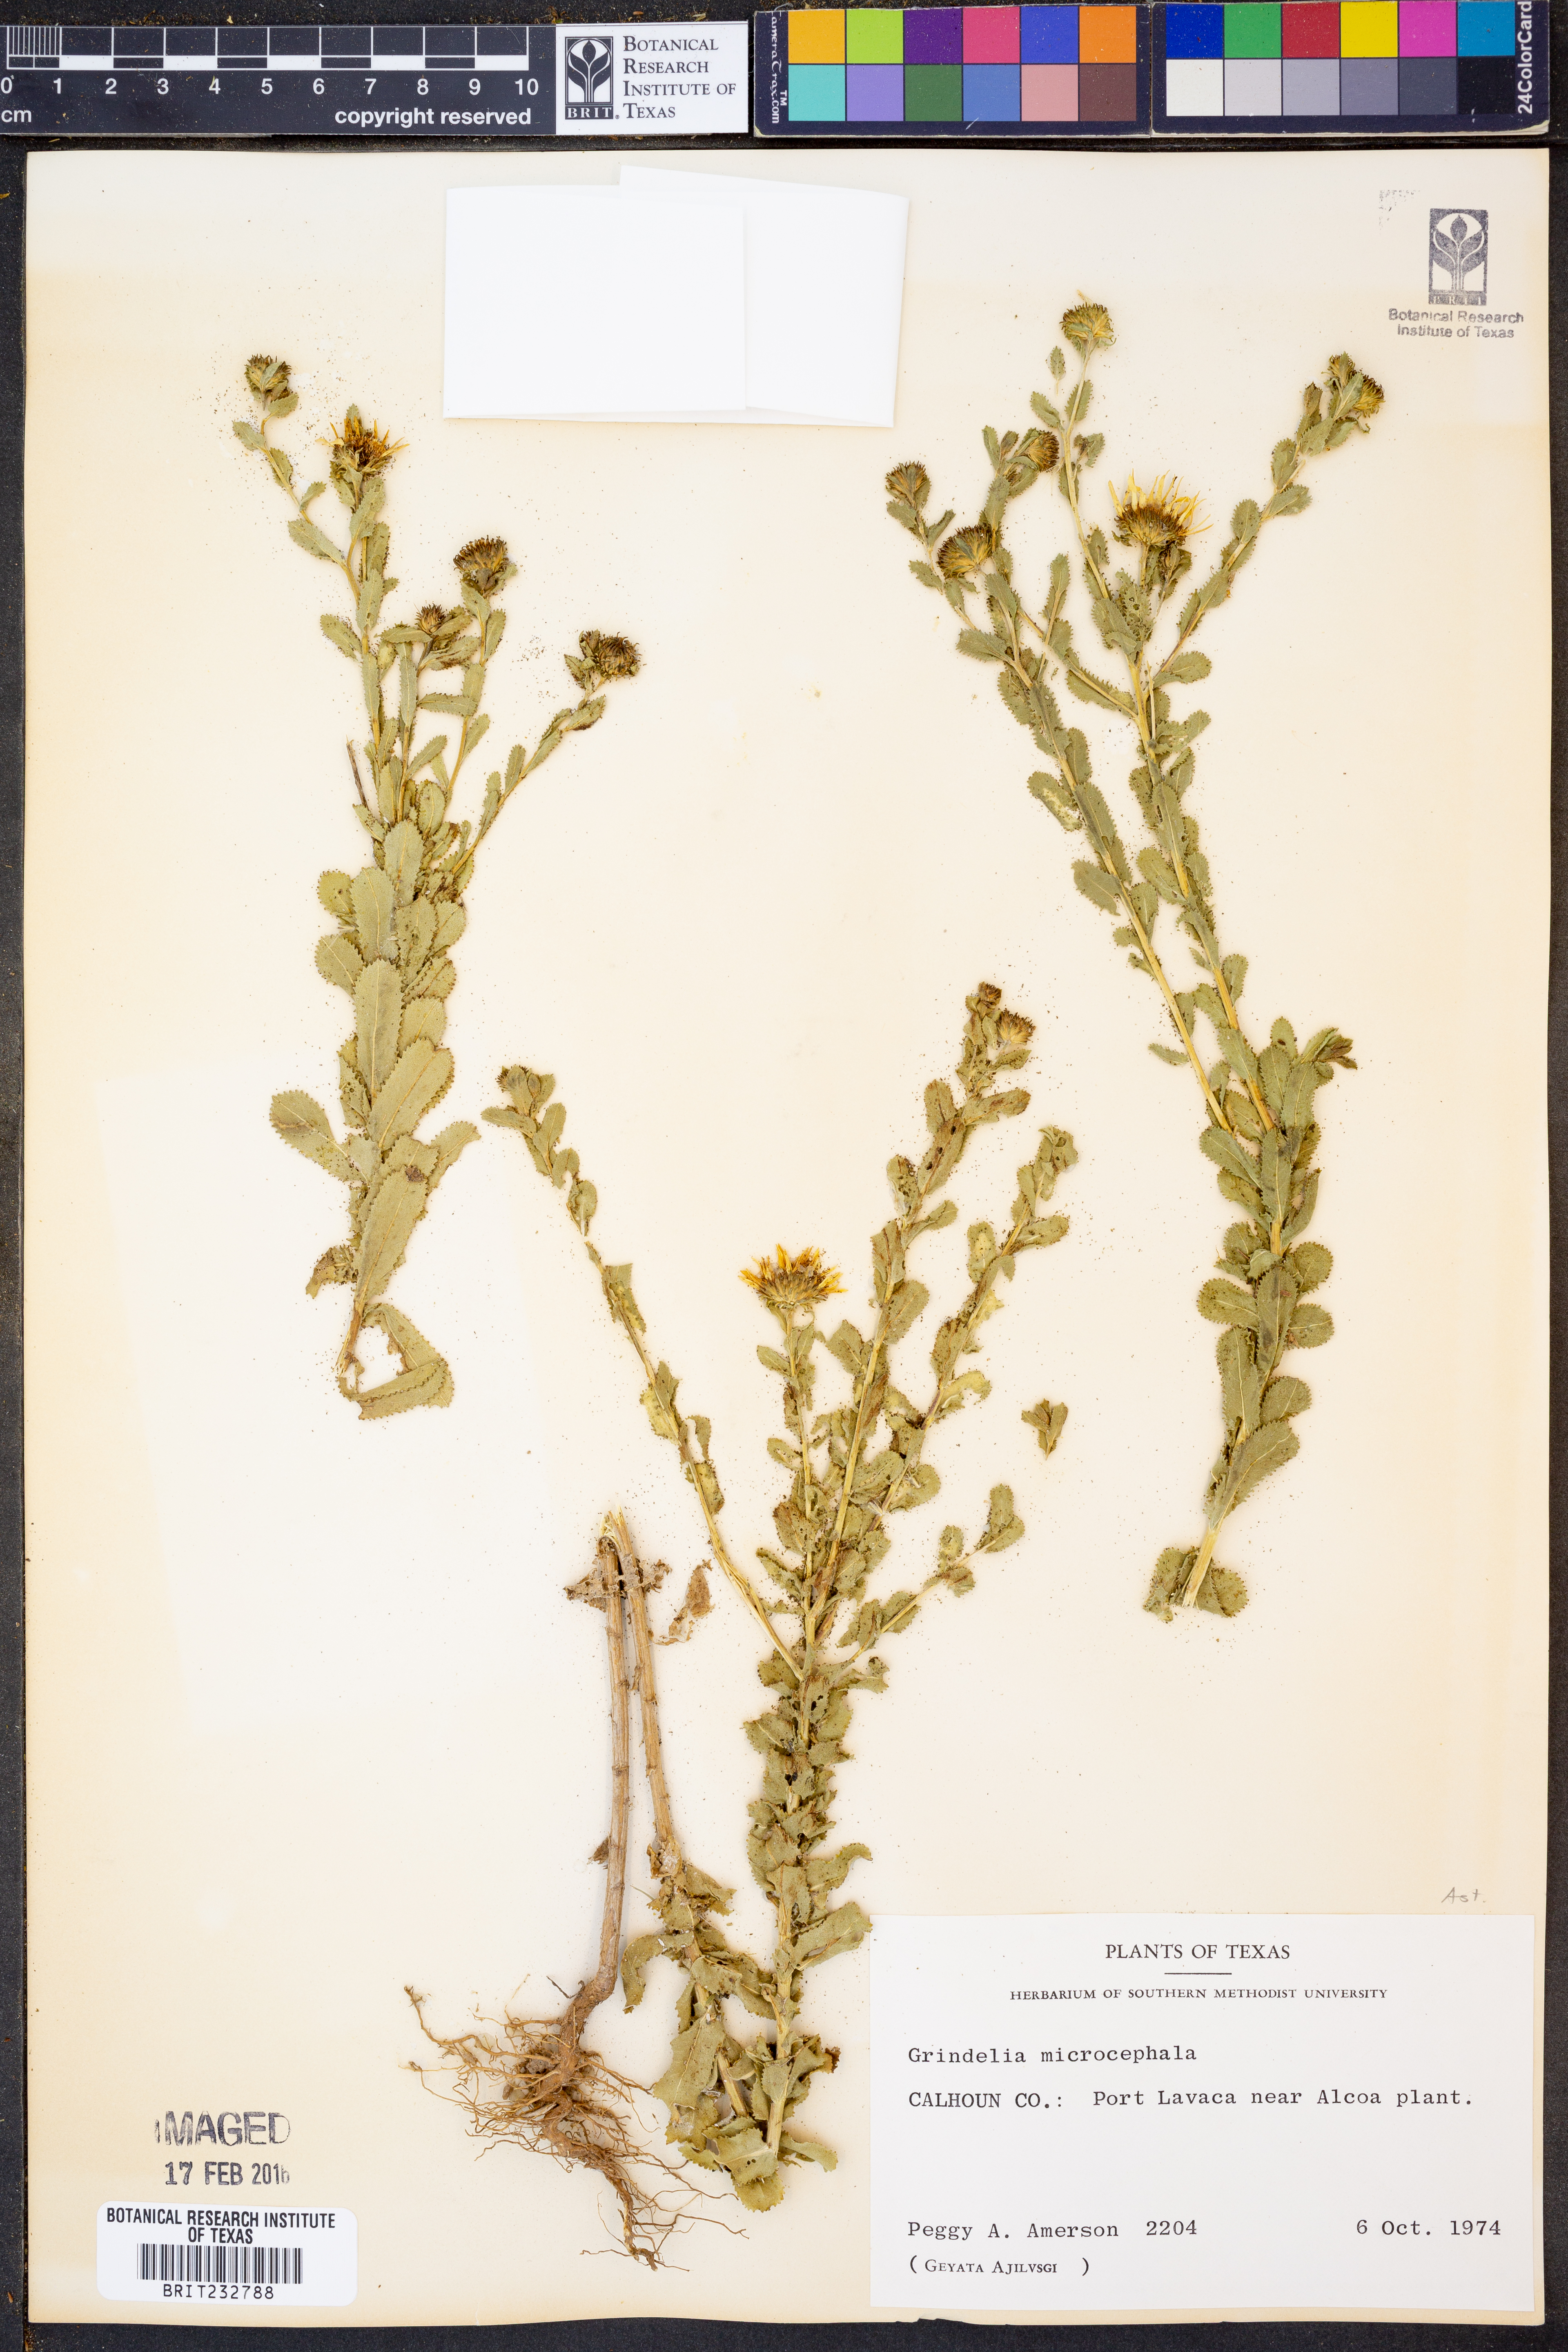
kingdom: Plantae
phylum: Tracheophyta
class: Magnoliopsida
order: Asterales
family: Asteraceae
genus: Grindelia
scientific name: Grindelia arizonica
